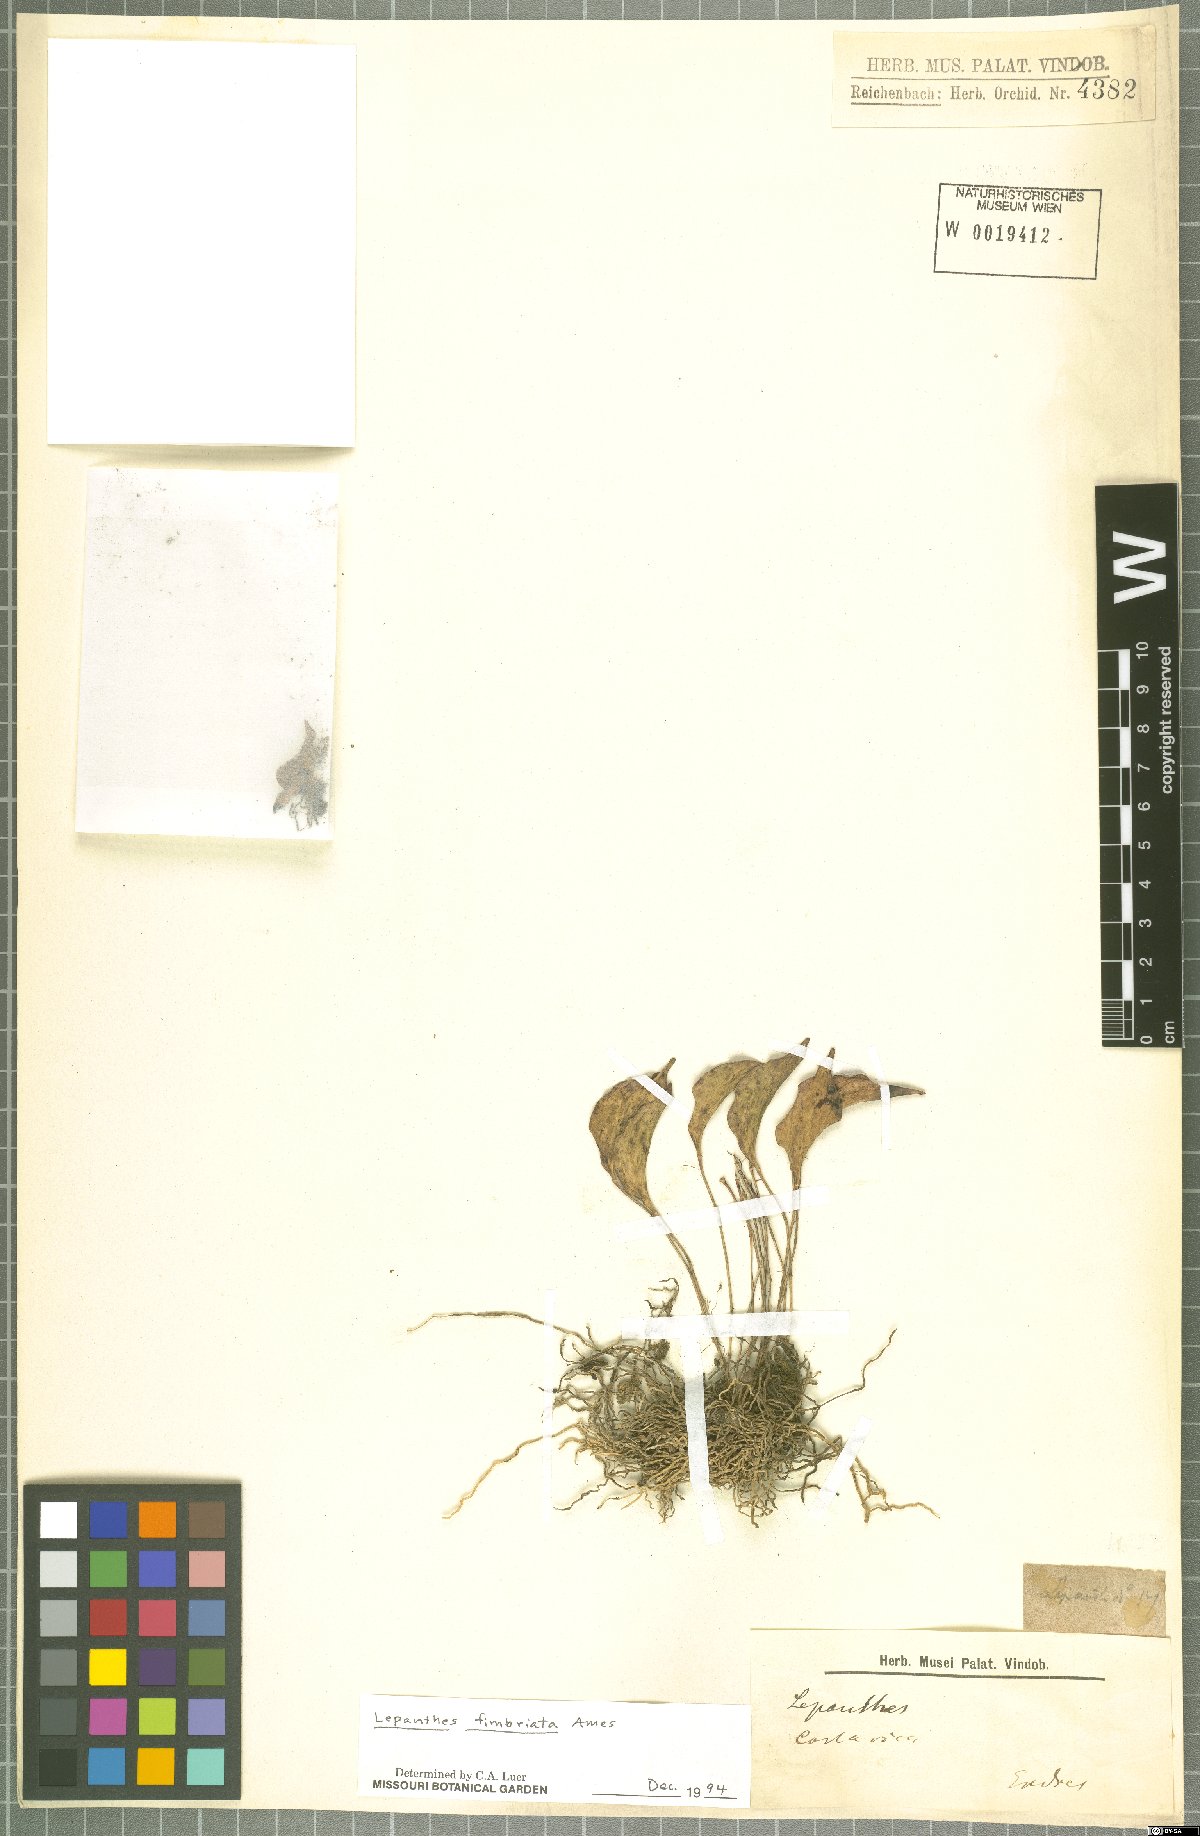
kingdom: Plantae
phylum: Tracheophyta
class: Liliopsida
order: Asparagales
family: Orchidaceae
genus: Lepanthes
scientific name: Lepanthes fimbriata
